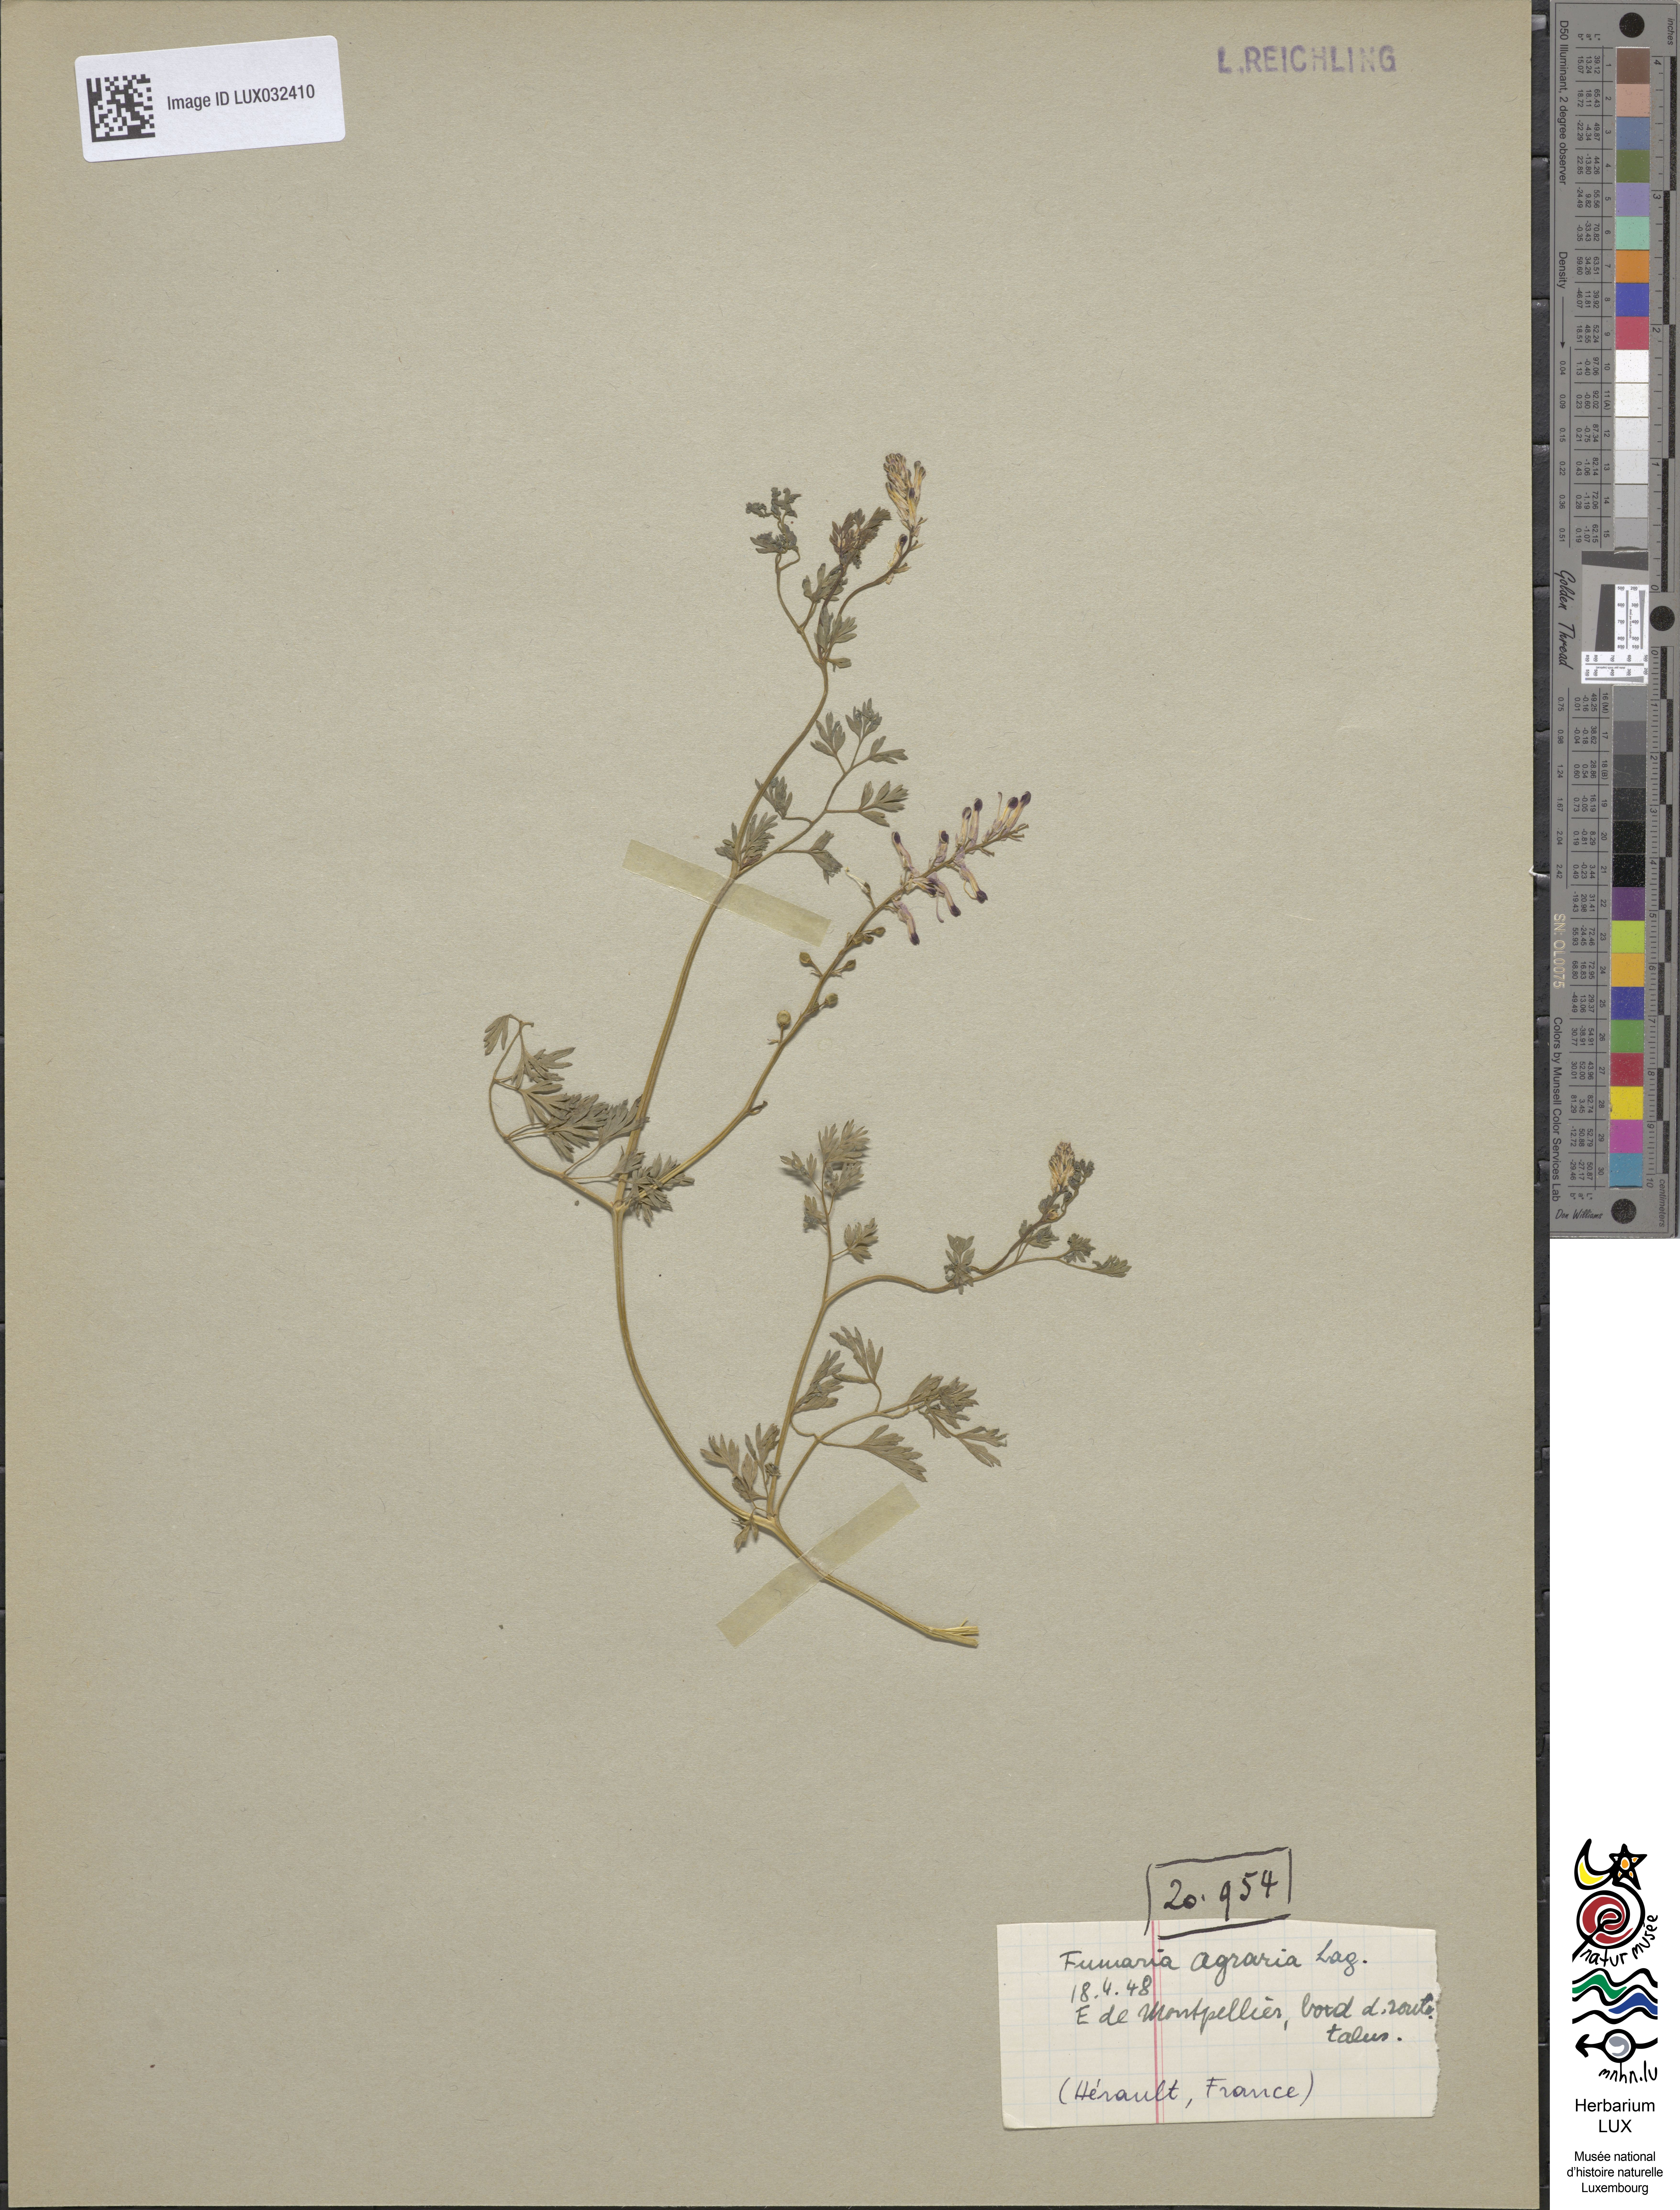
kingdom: Plantae
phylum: Tracheophyta
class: Magnoliopsida
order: Ranunculales
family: Papaveraceae
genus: Fumaria
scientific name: Fumaria agraria
